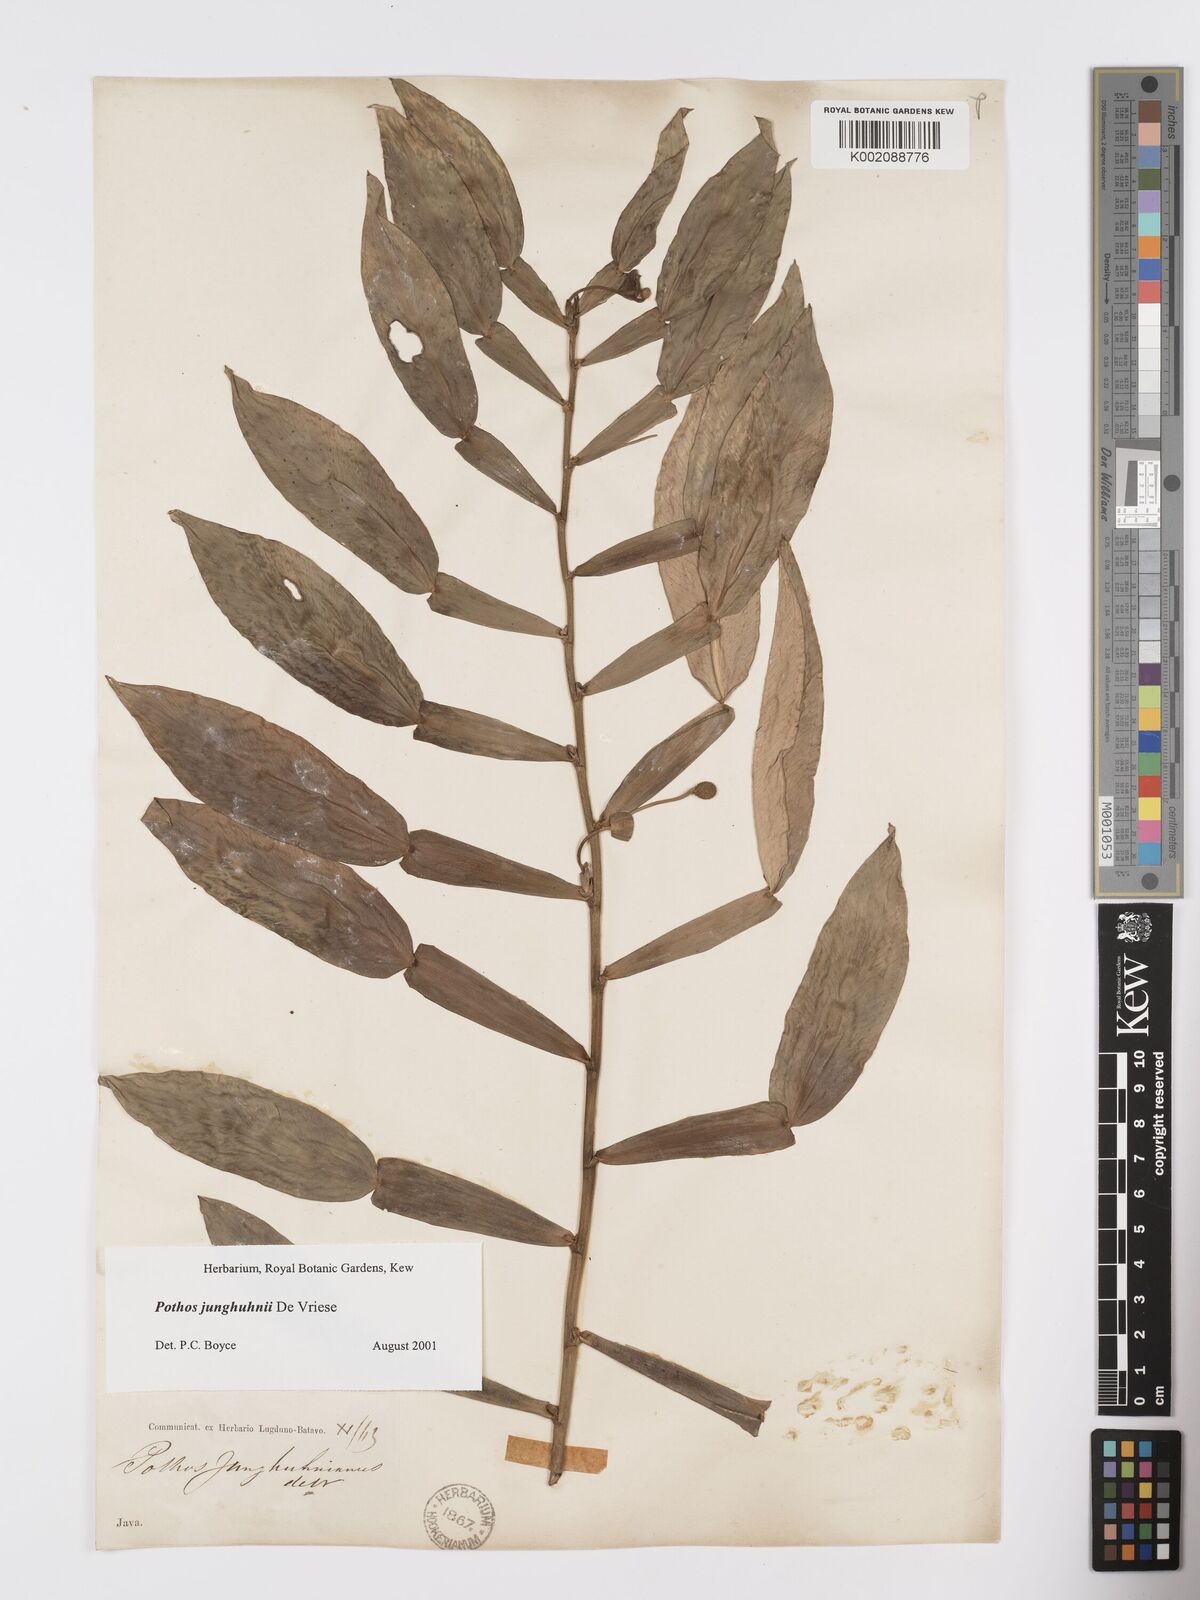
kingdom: Plantae
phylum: Tracheophyta
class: Liliopsida
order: Alismatales
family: Araceae
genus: Pothos
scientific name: Pothos junghuhnii
